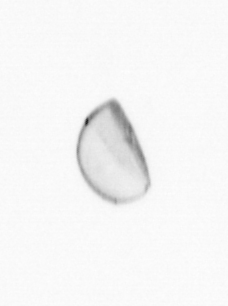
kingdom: Chromista
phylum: Ochrophyta
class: Bacillariophyceae
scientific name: Bacillariophyceae
